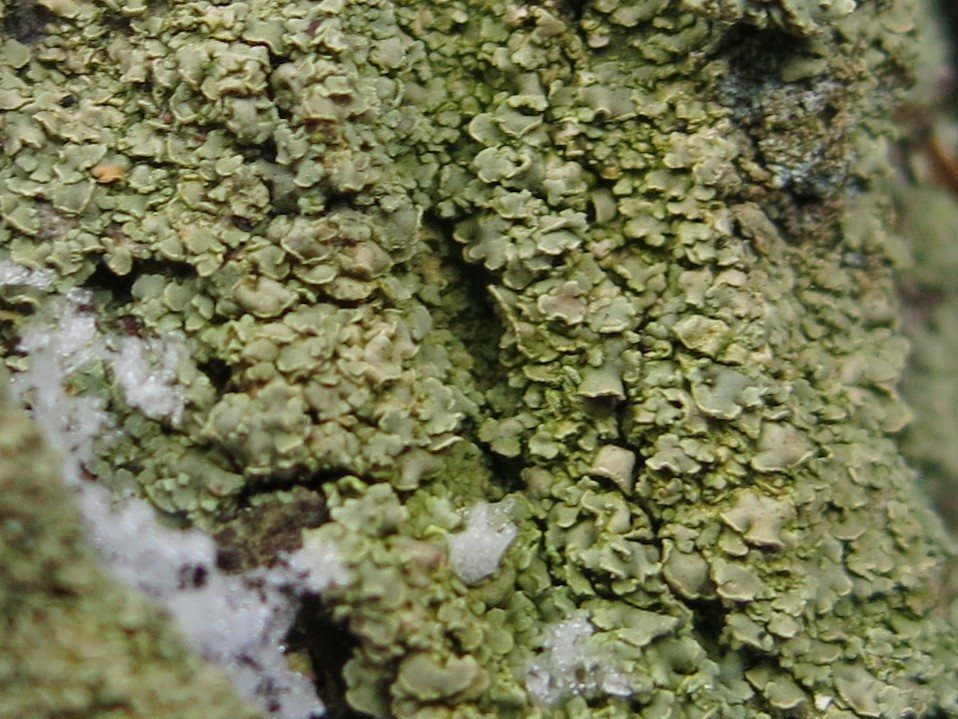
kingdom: Fungi
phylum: Ascomycota
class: Lecanoromycetes
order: Umbilicariales
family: Ophioparmaceae
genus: Hypocenomyce
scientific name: Hypocenomyce scalaris
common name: småskællet muslinglav
